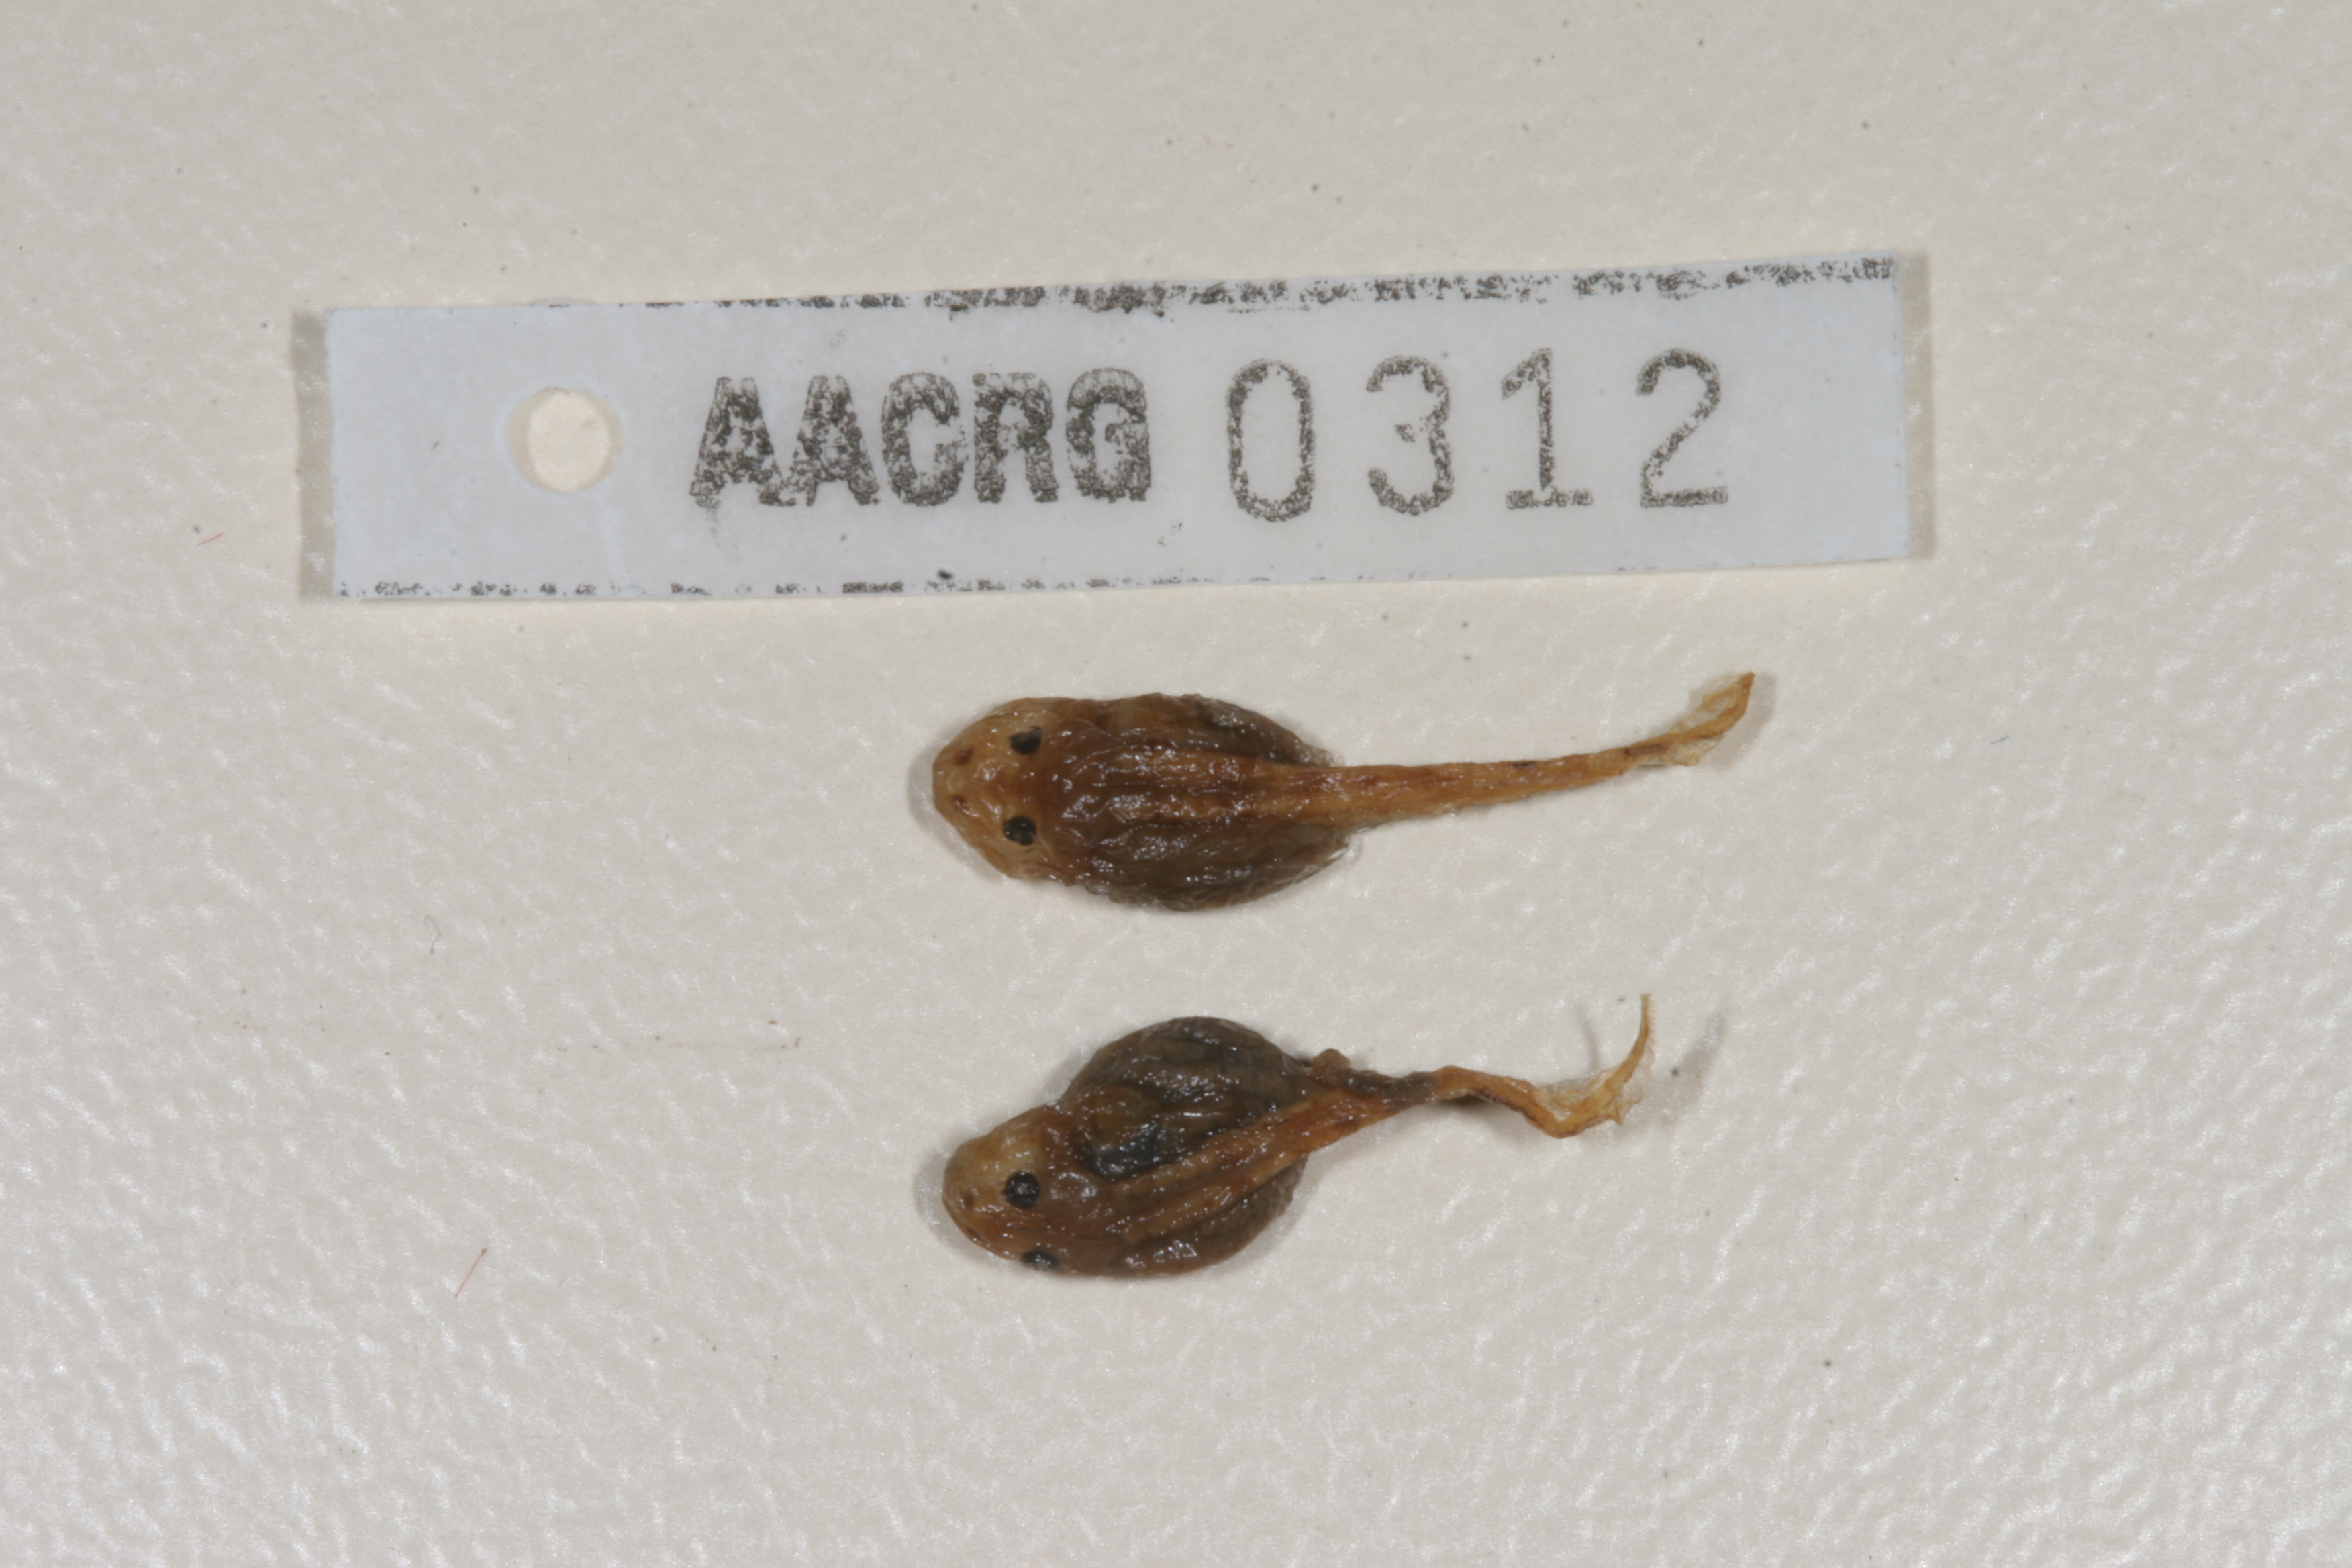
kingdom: Animalia
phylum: Chordata
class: Amphibia
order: Anura
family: Ptychadenidae
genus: Ptychadena
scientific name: Ptychadena anchietae
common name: Anchieta's ridged frog
